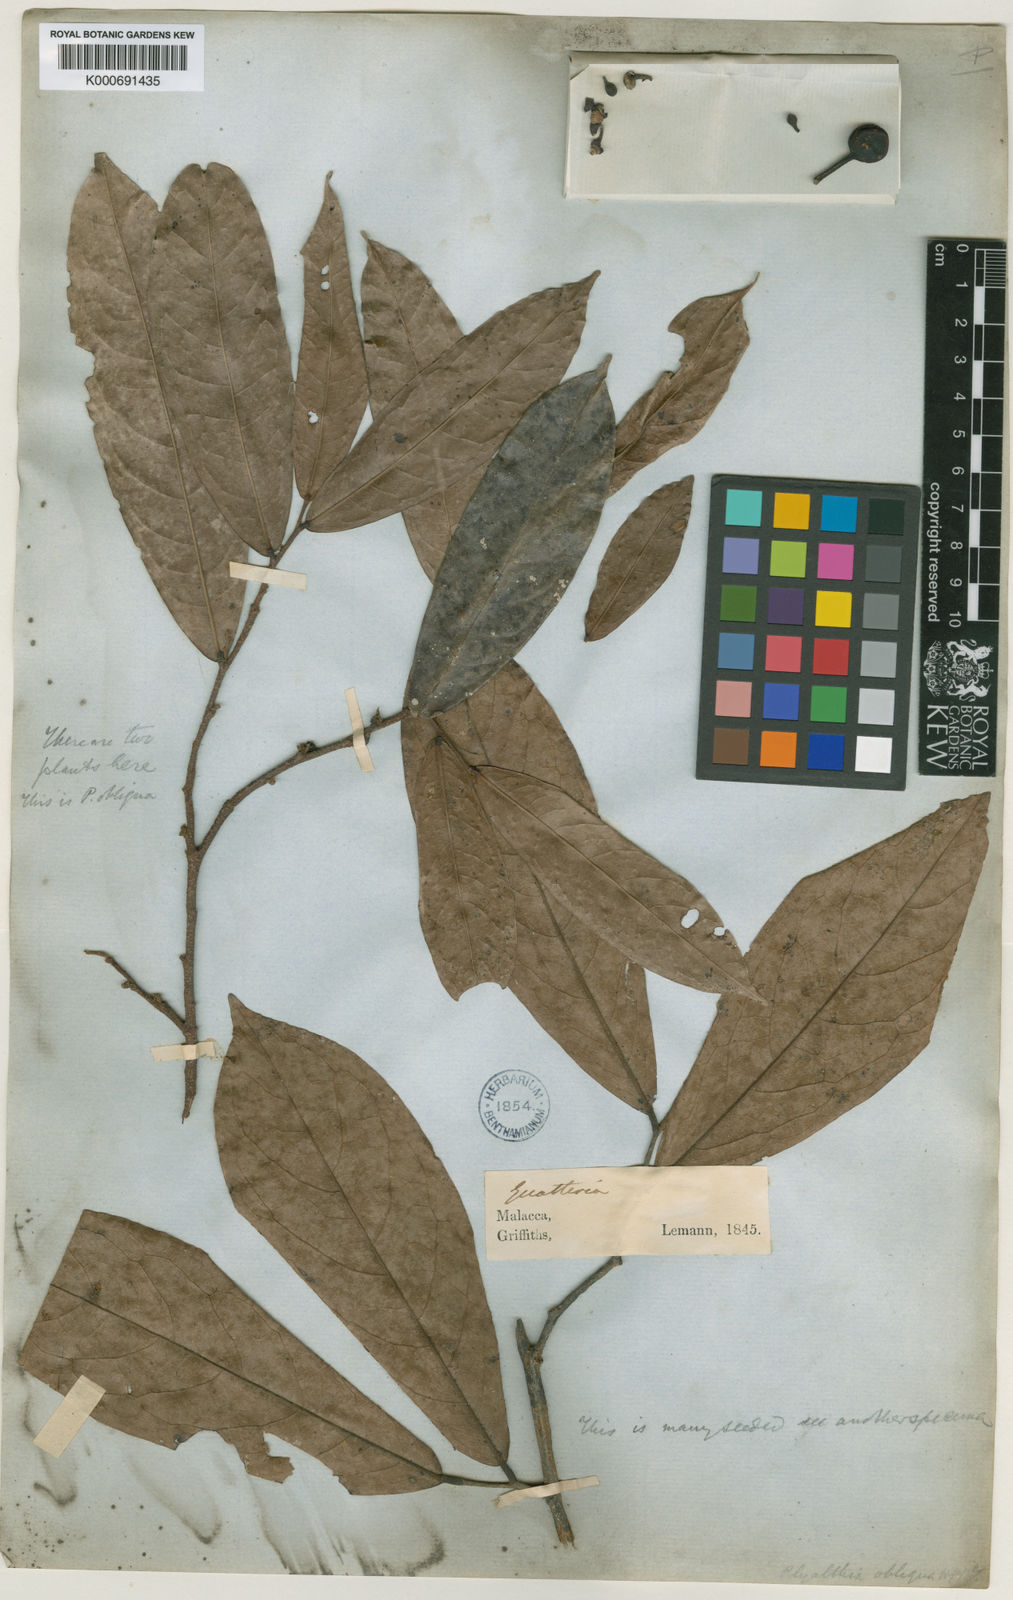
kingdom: Plantae
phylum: Tracheophyta
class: Magnoliopsida
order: Magnoliales
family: Annonaceae
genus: Polyalthia
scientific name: Polyalthia obliqua
